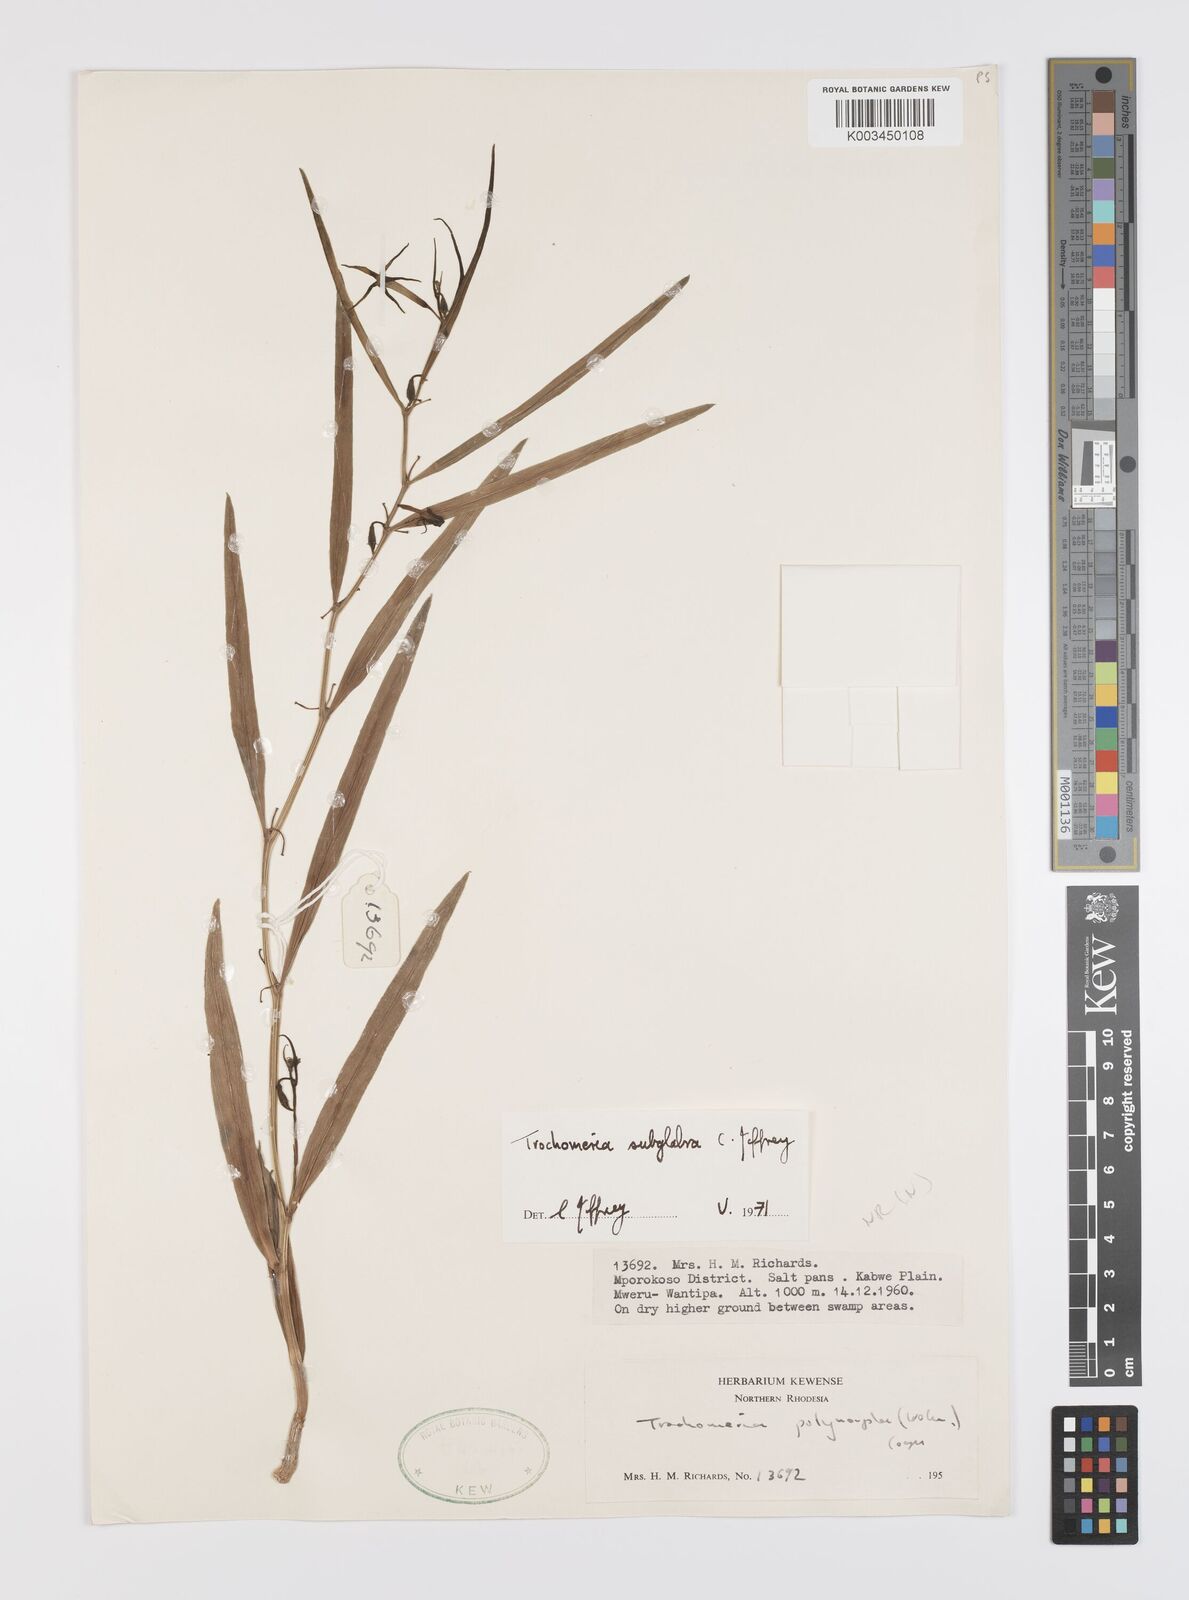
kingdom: Plantae
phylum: Tracheophyta
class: Magnoliopsida
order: Cucurbitales
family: Cucurbitaceae
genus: Trochomeria
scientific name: Trochomeria subglabra
